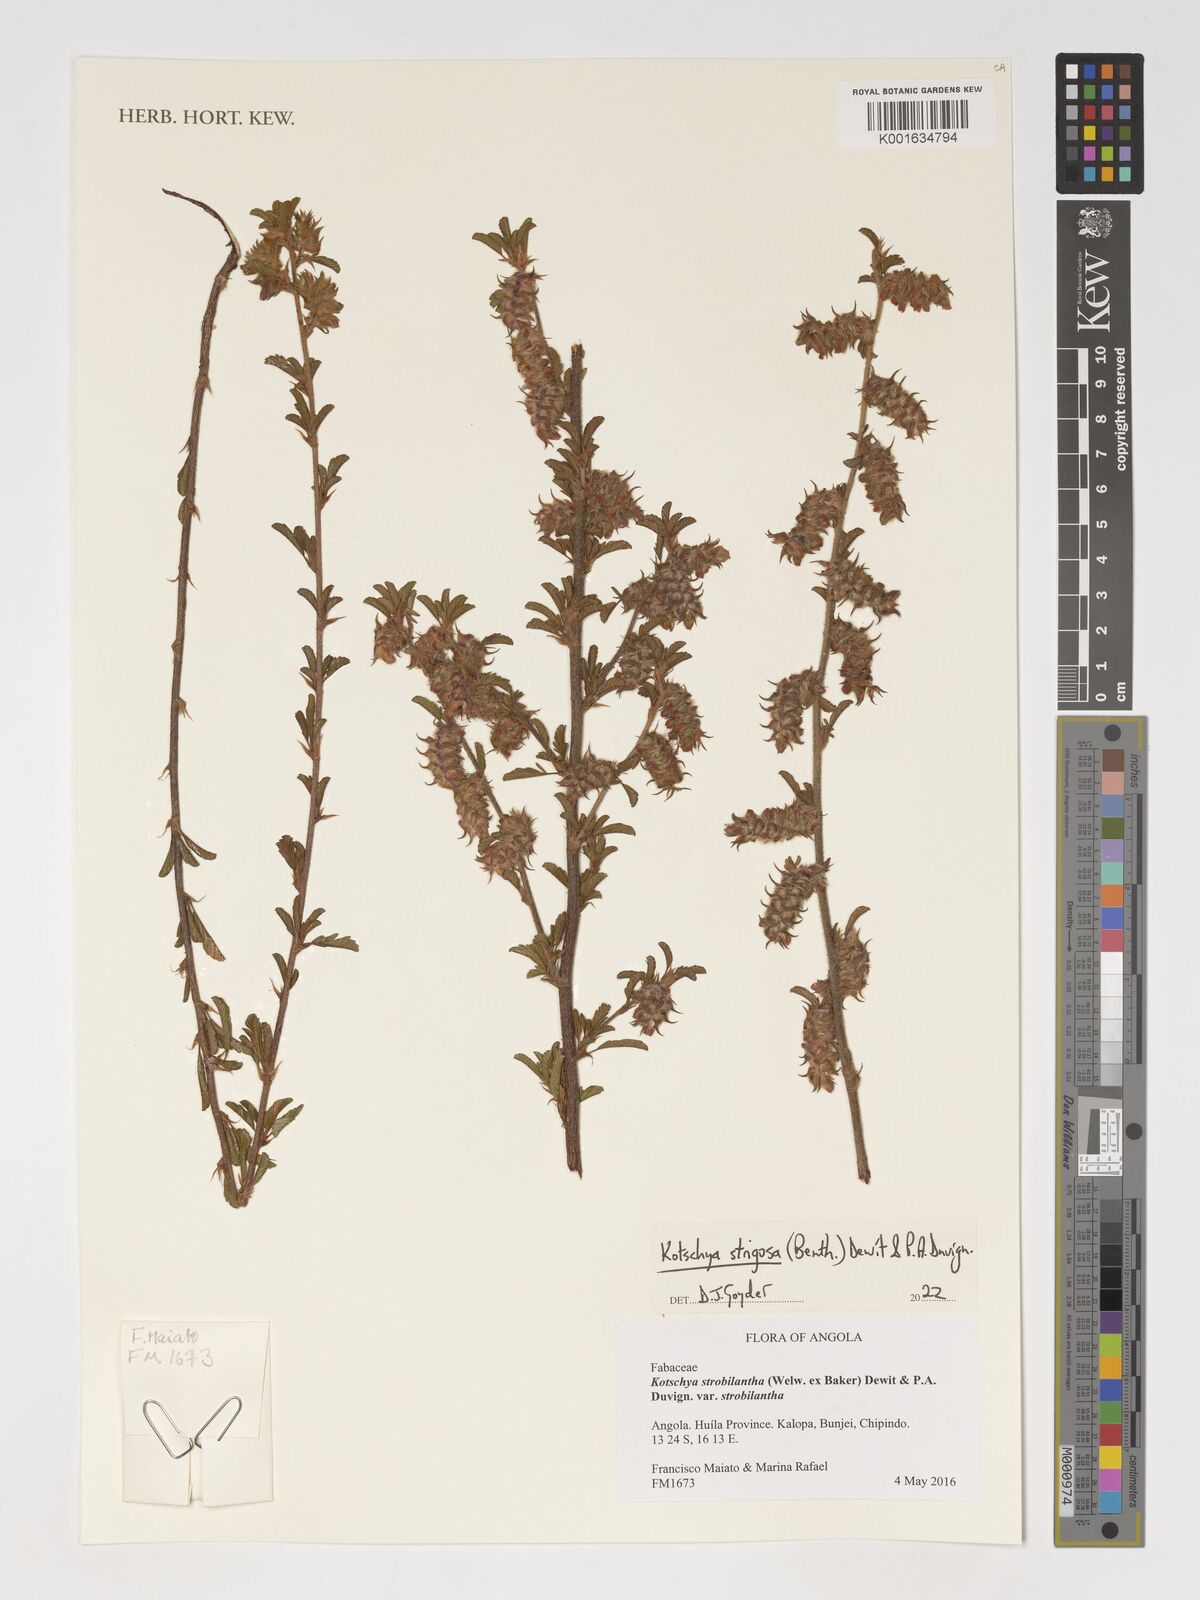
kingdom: Plantae
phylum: Tracheophyta
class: Magnoliopsida
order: Fabales
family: Fabaceae
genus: Kotschya
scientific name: Kotschya strigosa
